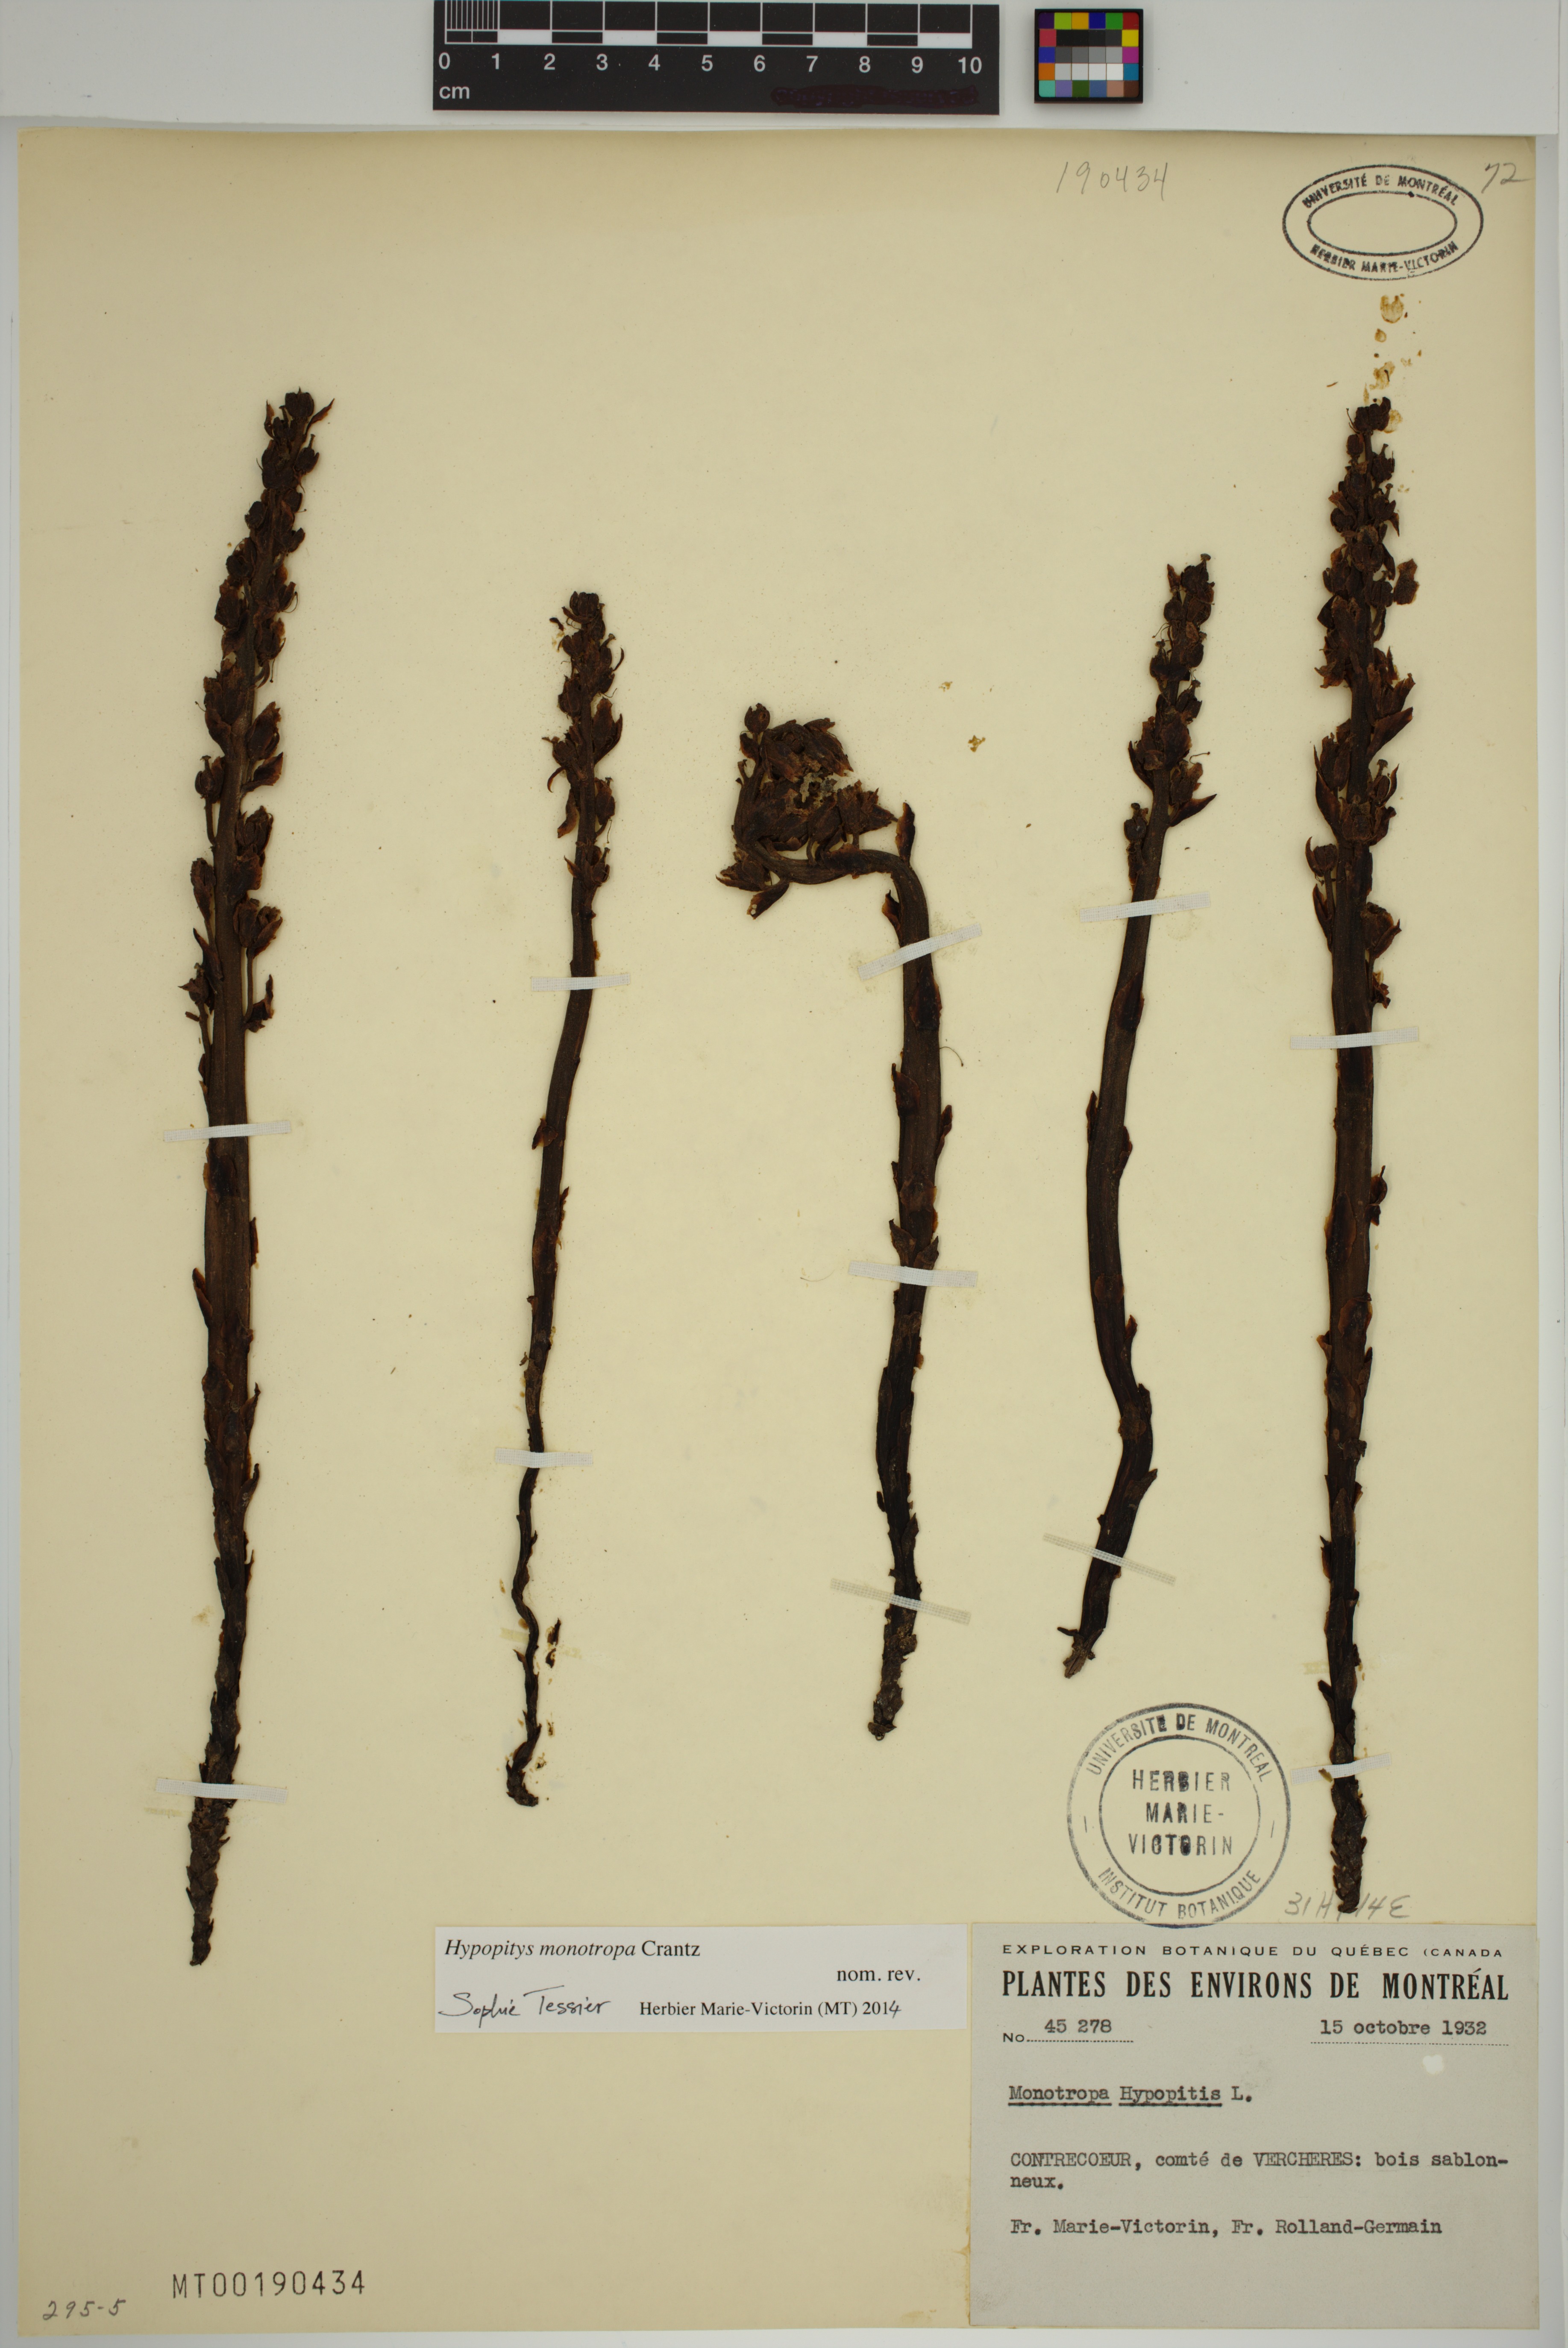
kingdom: Plantae
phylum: Tracheophyta
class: Magnoliopsida
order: Ericales
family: Ericaceae
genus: Hypopitys
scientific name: Hypopitys monotropa
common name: Yellow bird's-nest
